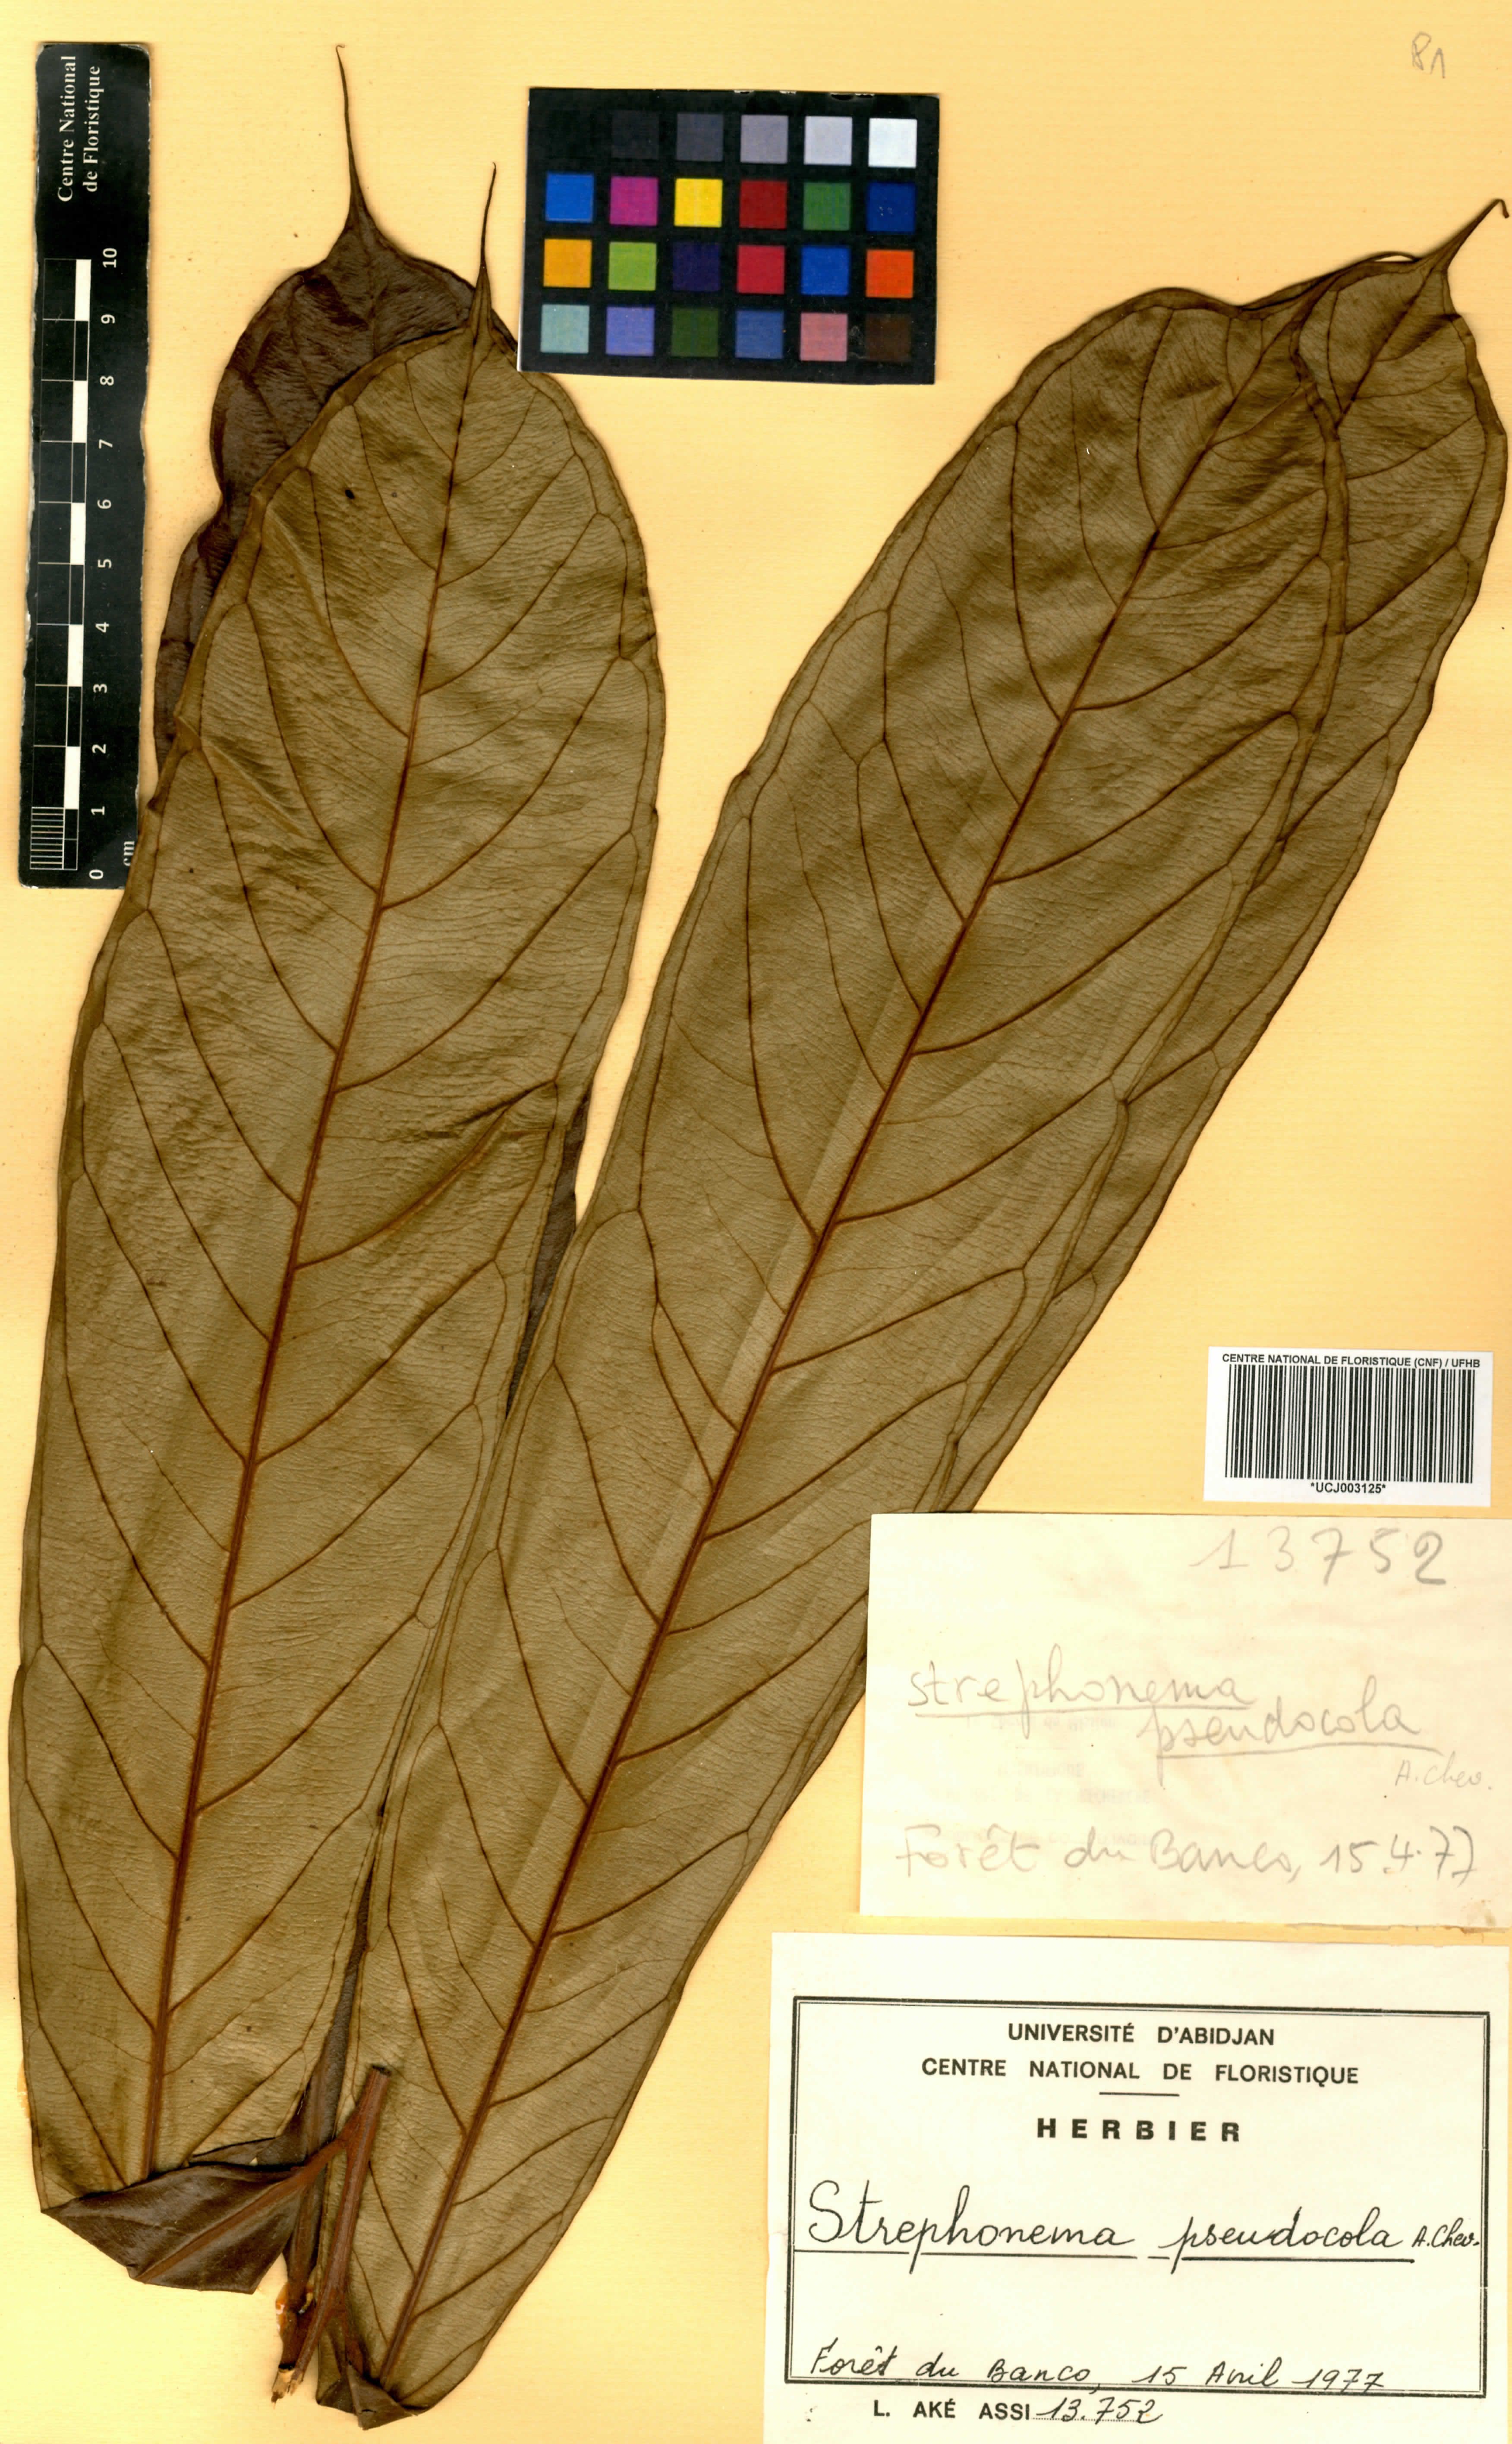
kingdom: Plantae
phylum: Tracheophyta
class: Magnoliopsida
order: Myrtales
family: Combretaceae
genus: Strephonema
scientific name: Strephonema pseudocola
